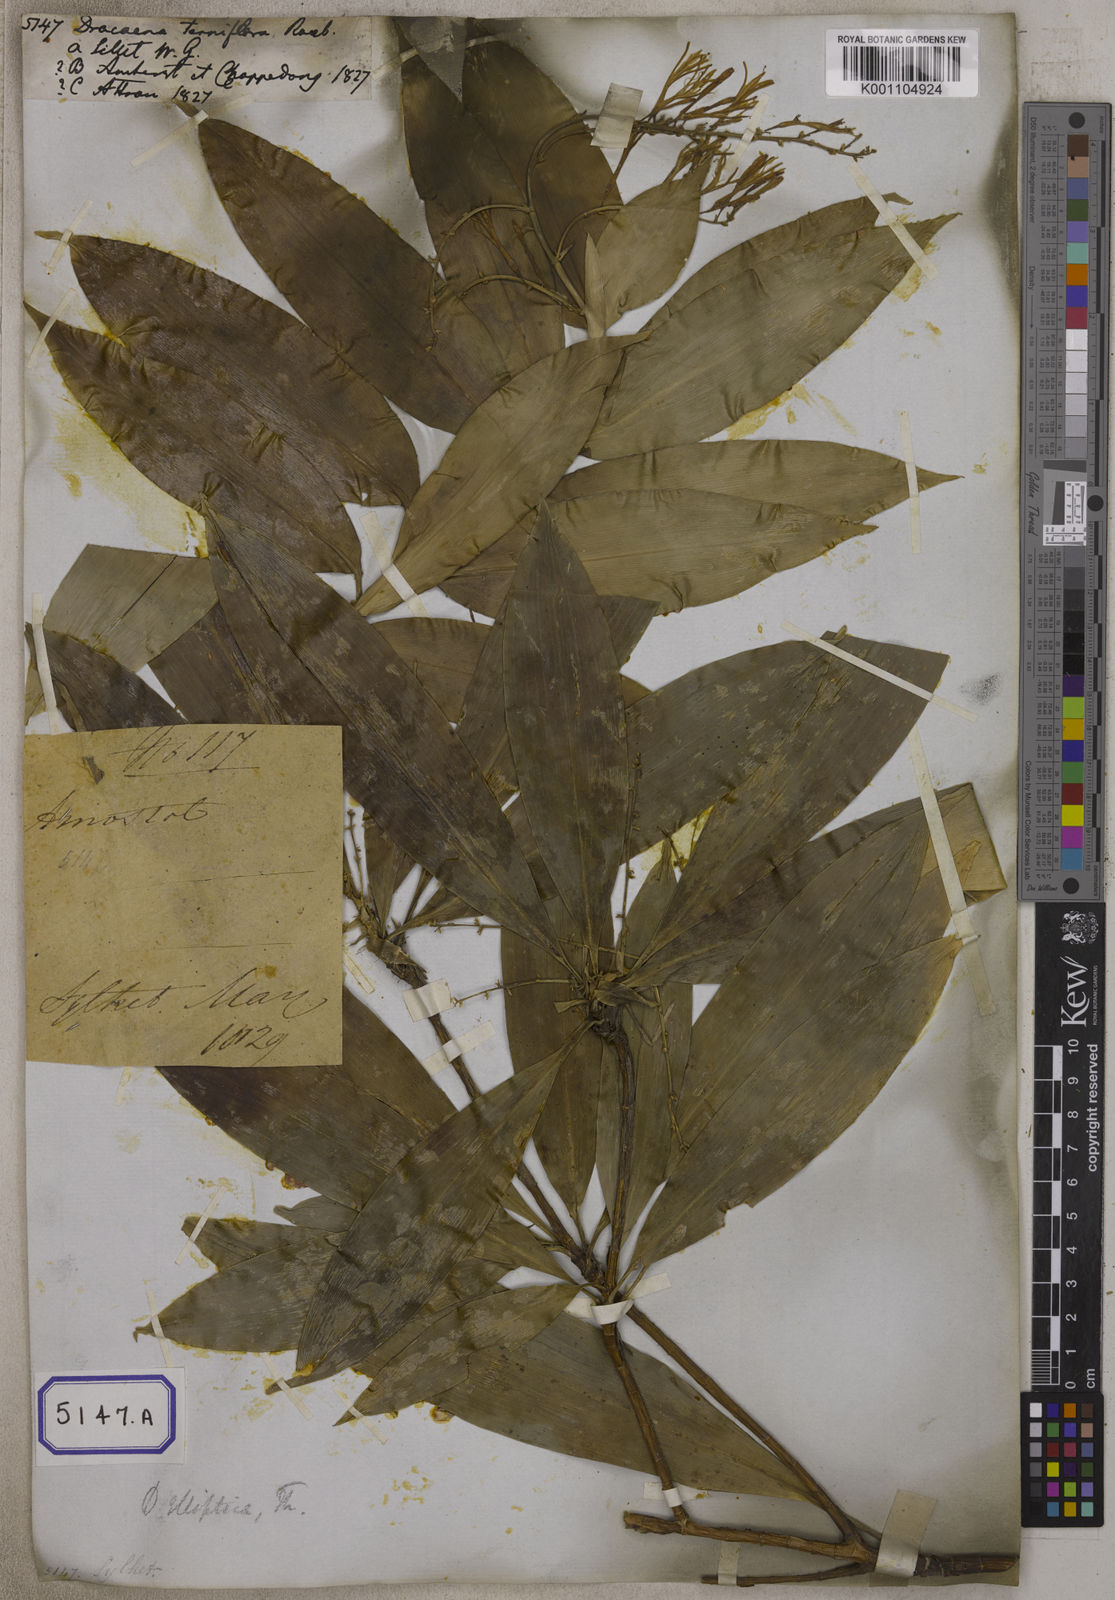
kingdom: Plantae
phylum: Tracheophyta
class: Liliopsida
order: Asparagales
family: Asparagaceae
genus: Dracaena
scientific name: Dracaena elliptica
